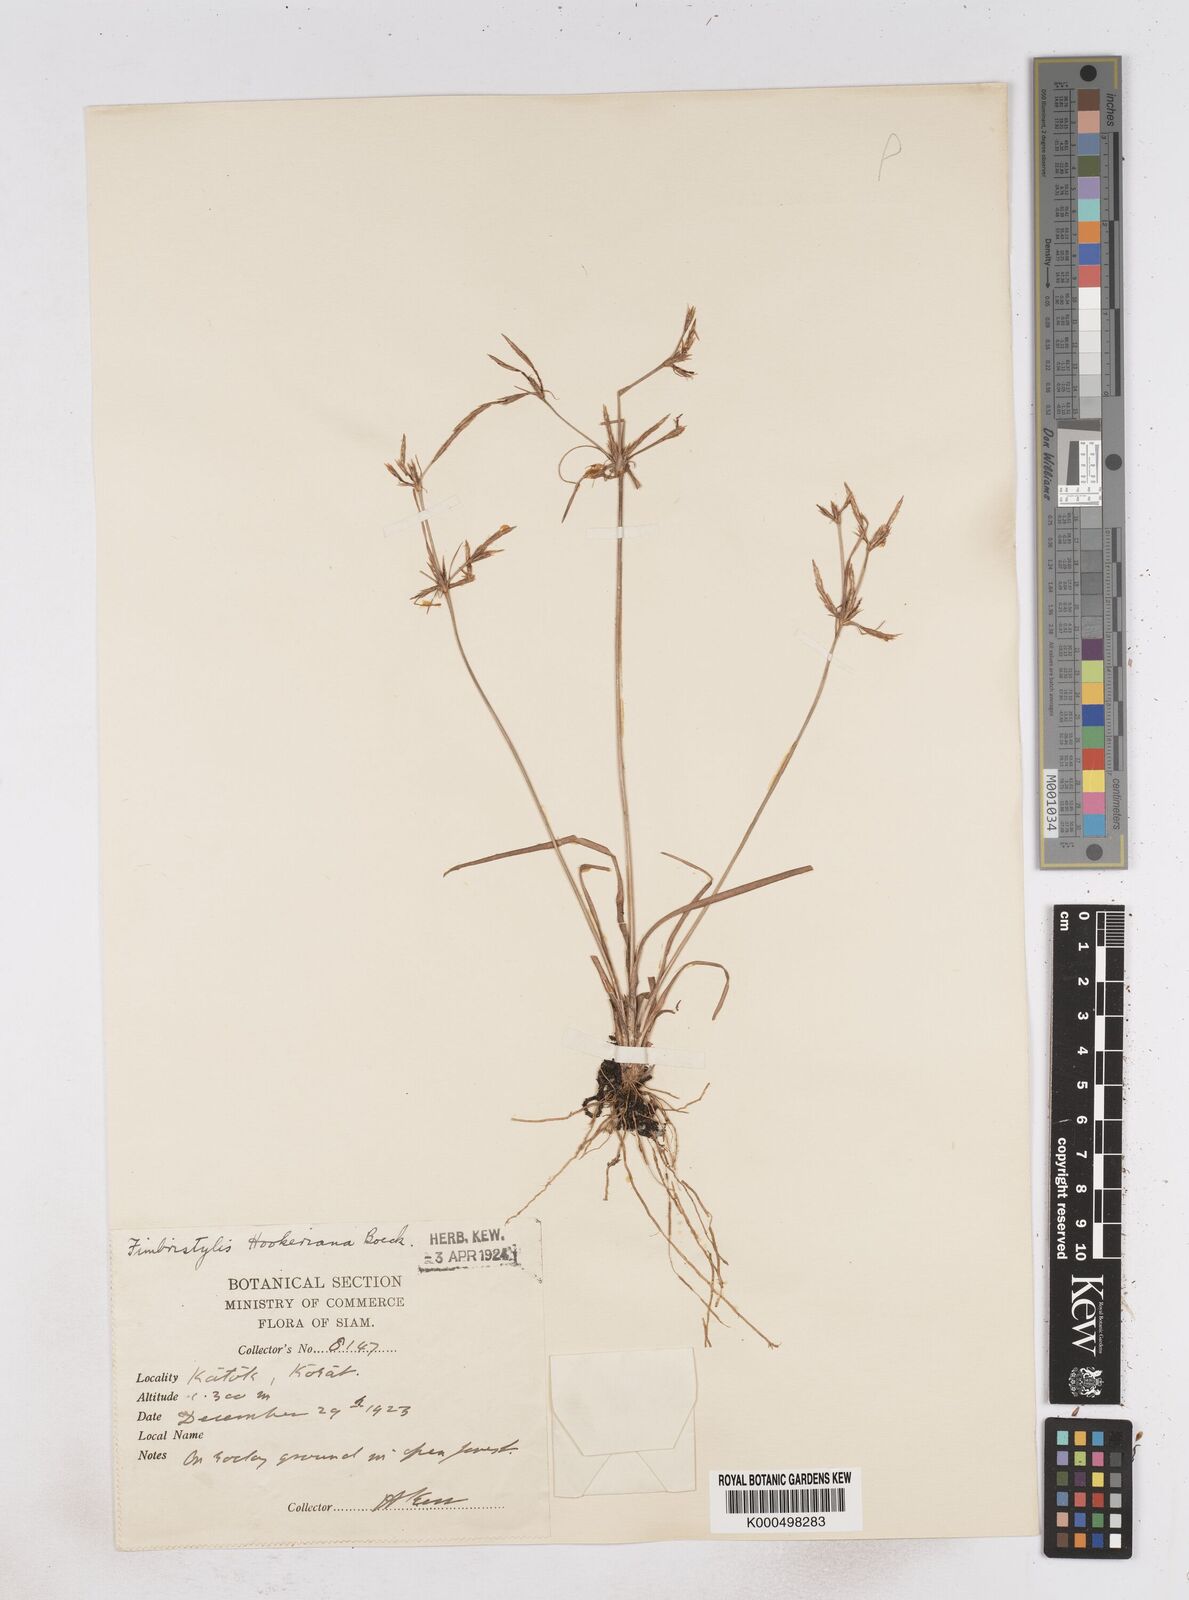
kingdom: Plantae
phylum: Tracheophyta
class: Liliopsida
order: Poales
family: Cyperaceae
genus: Fimbristylis
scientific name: Fimbristylis hookeriana
